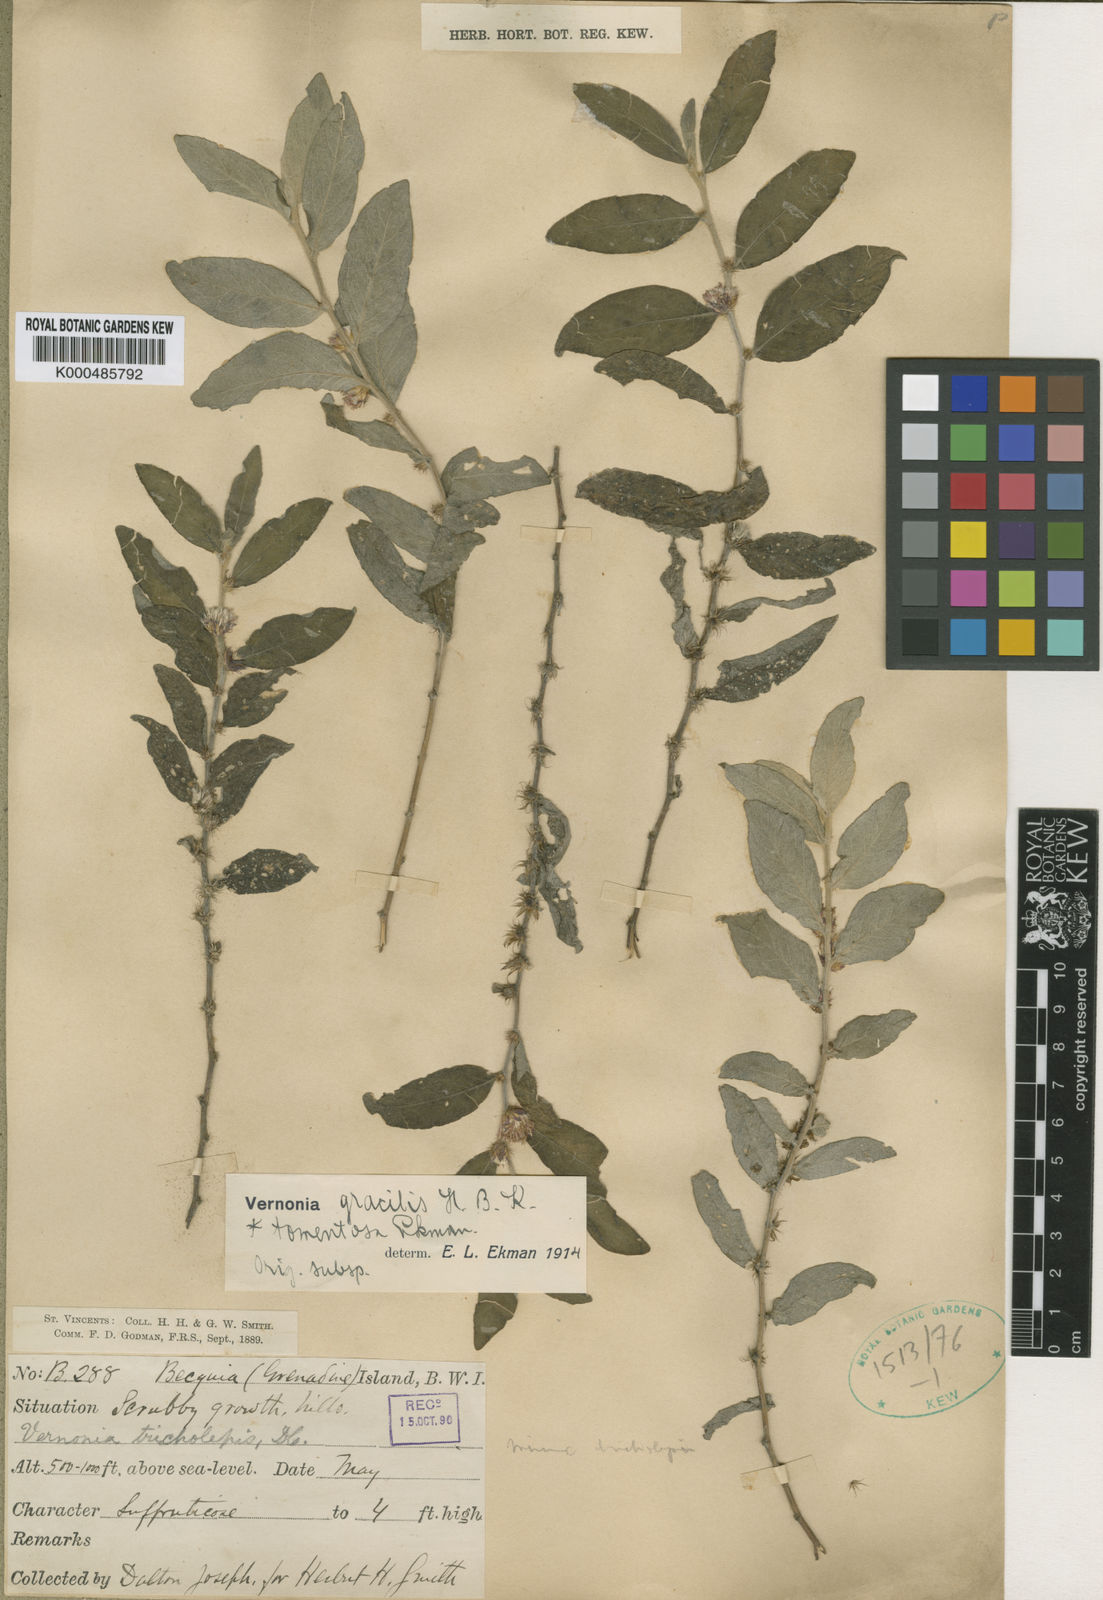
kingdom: Plantae
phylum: Tracheophyta
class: Magnoliopsida
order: Asterales
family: Asteraceae
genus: Lepidaploa
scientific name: Lepidaploa gracilis
